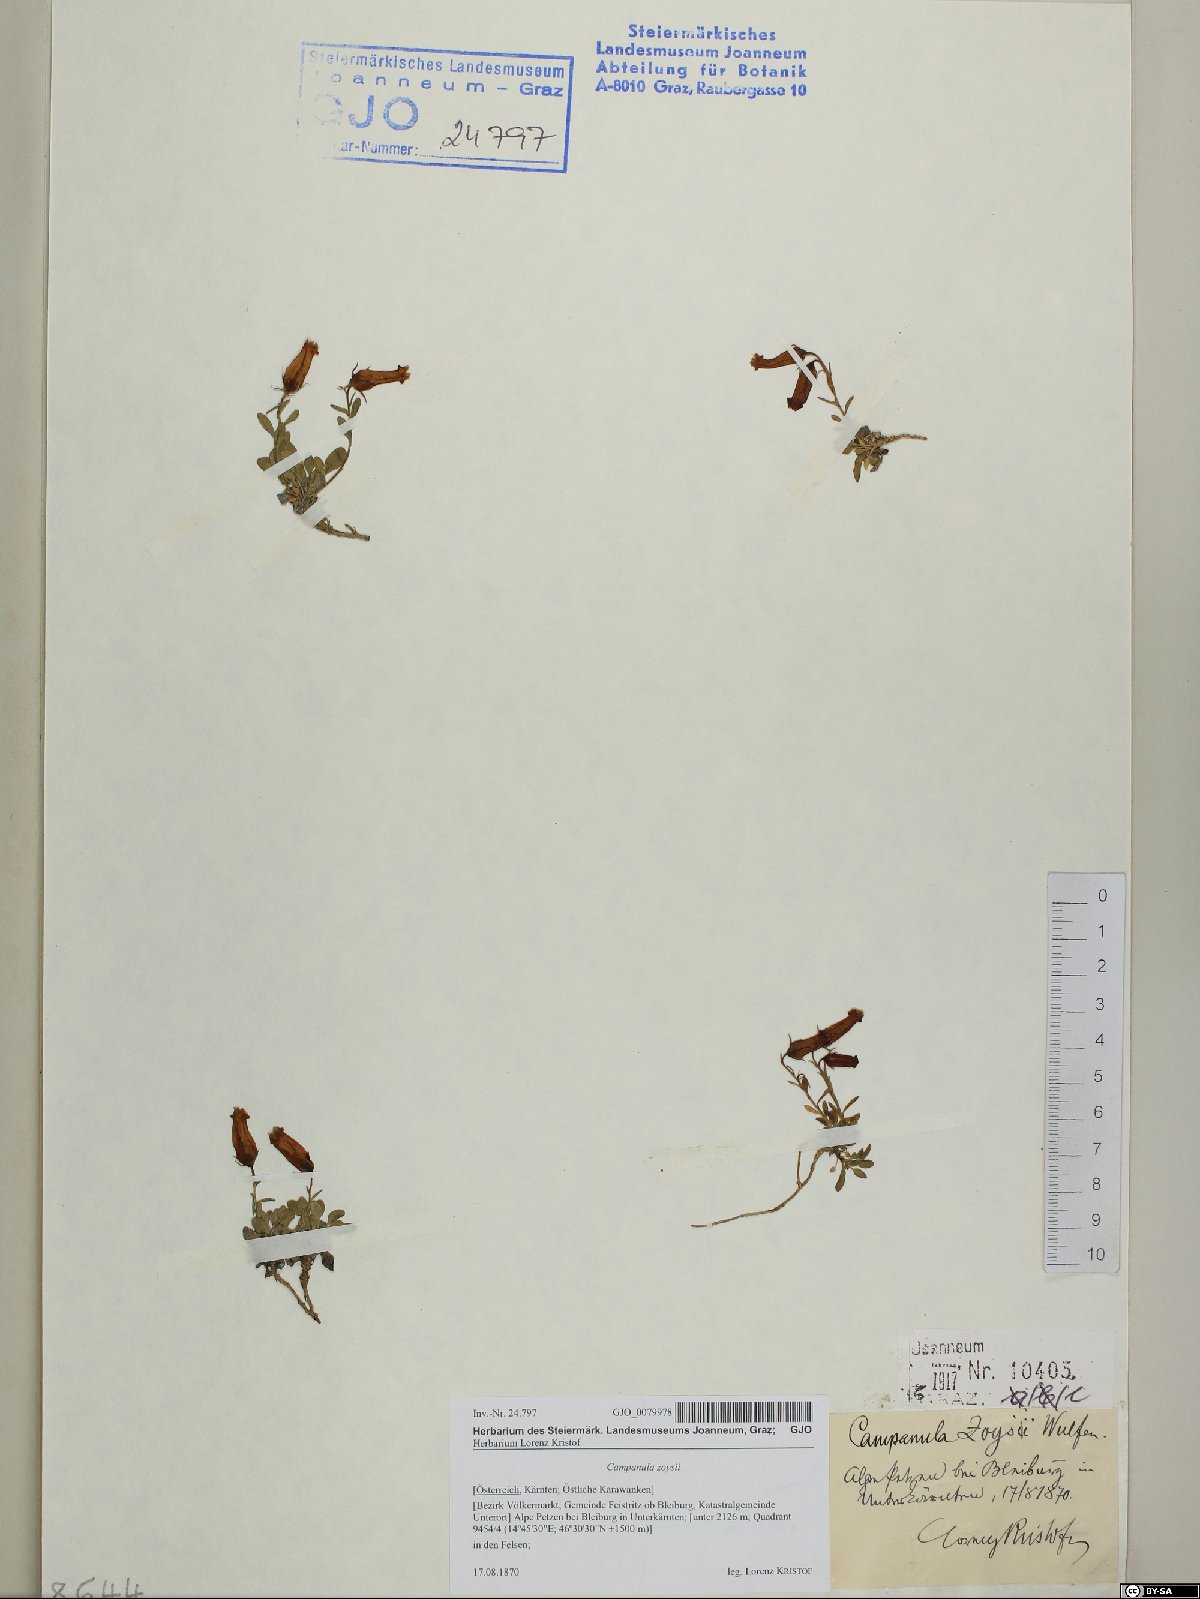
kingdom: Plantae
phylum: Tracheophyta
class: Magnoliopsida
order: Asterales
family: Campanulaceae
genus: Favratia
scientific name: Favratia zoysii
